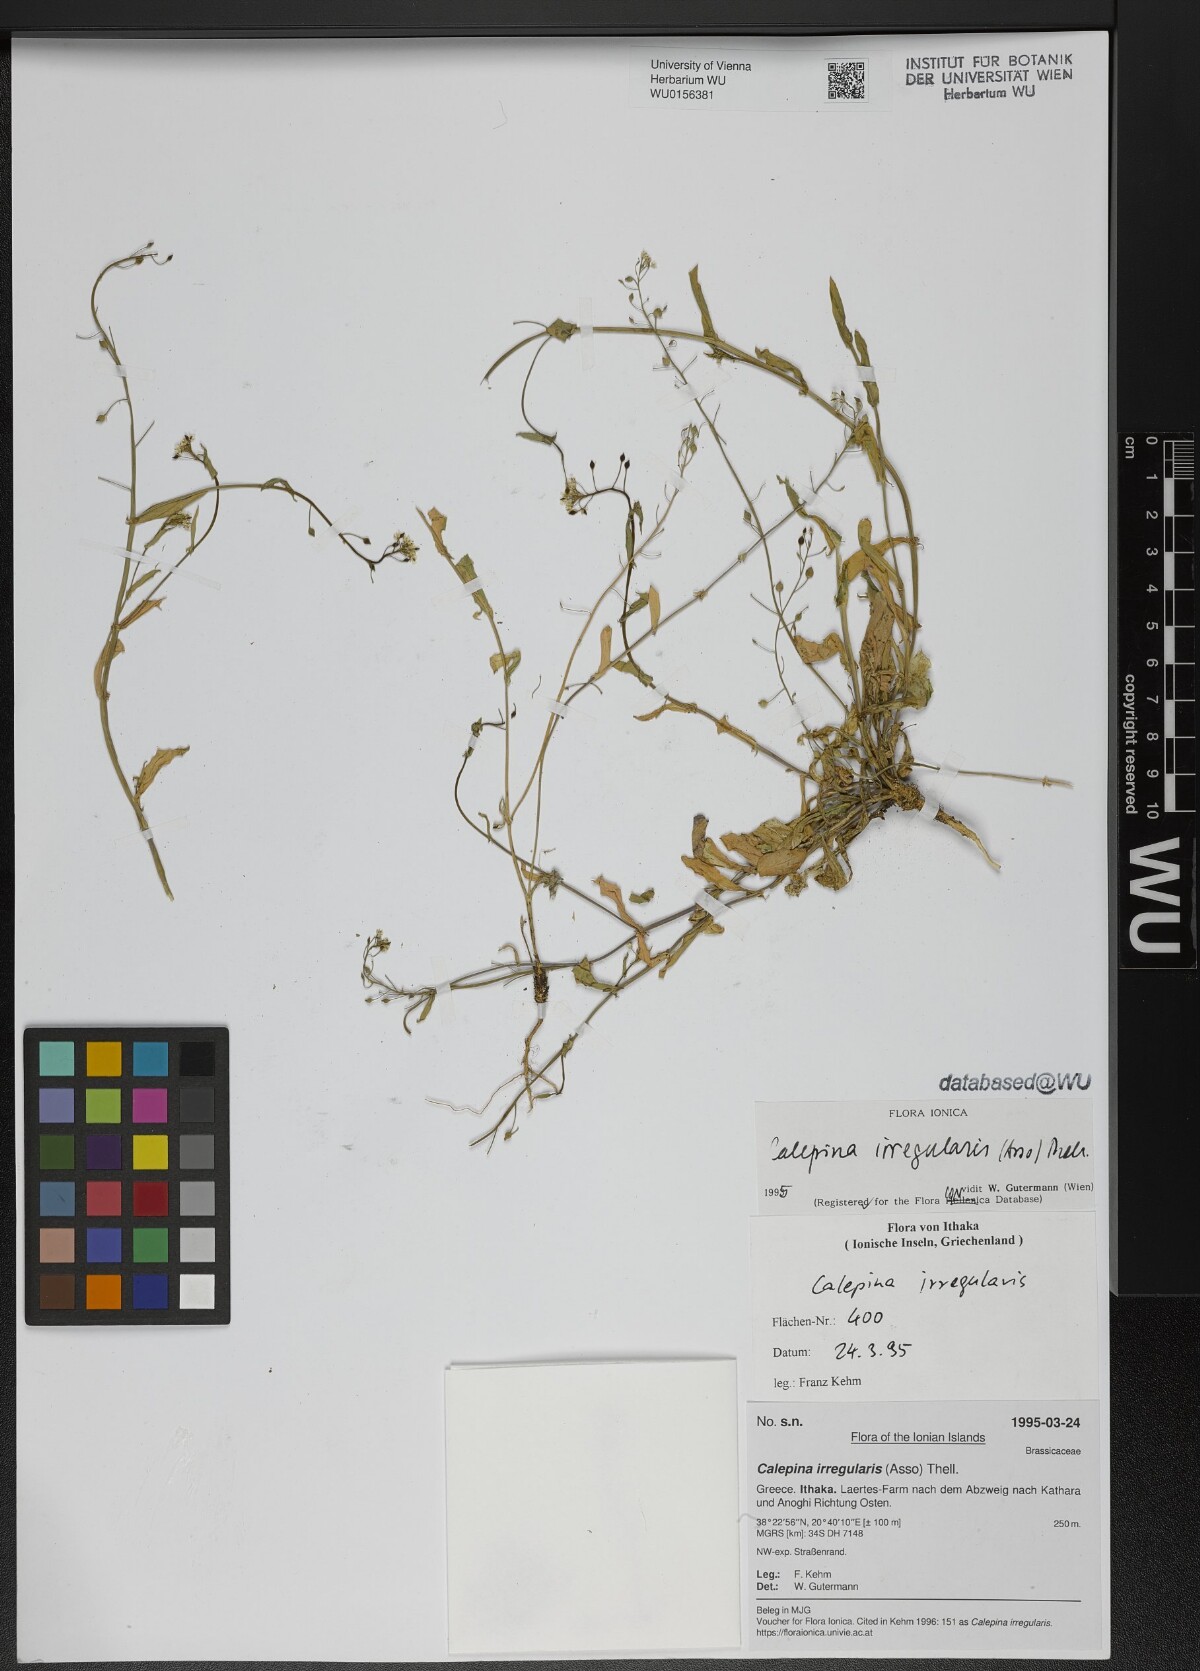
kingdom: Plantae
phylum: Tracheophyta
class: Magnoliopsida
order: Brassicales
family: Brassicaceae
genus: Calepina
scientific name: Calepina irregularis
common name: White ballmustard
